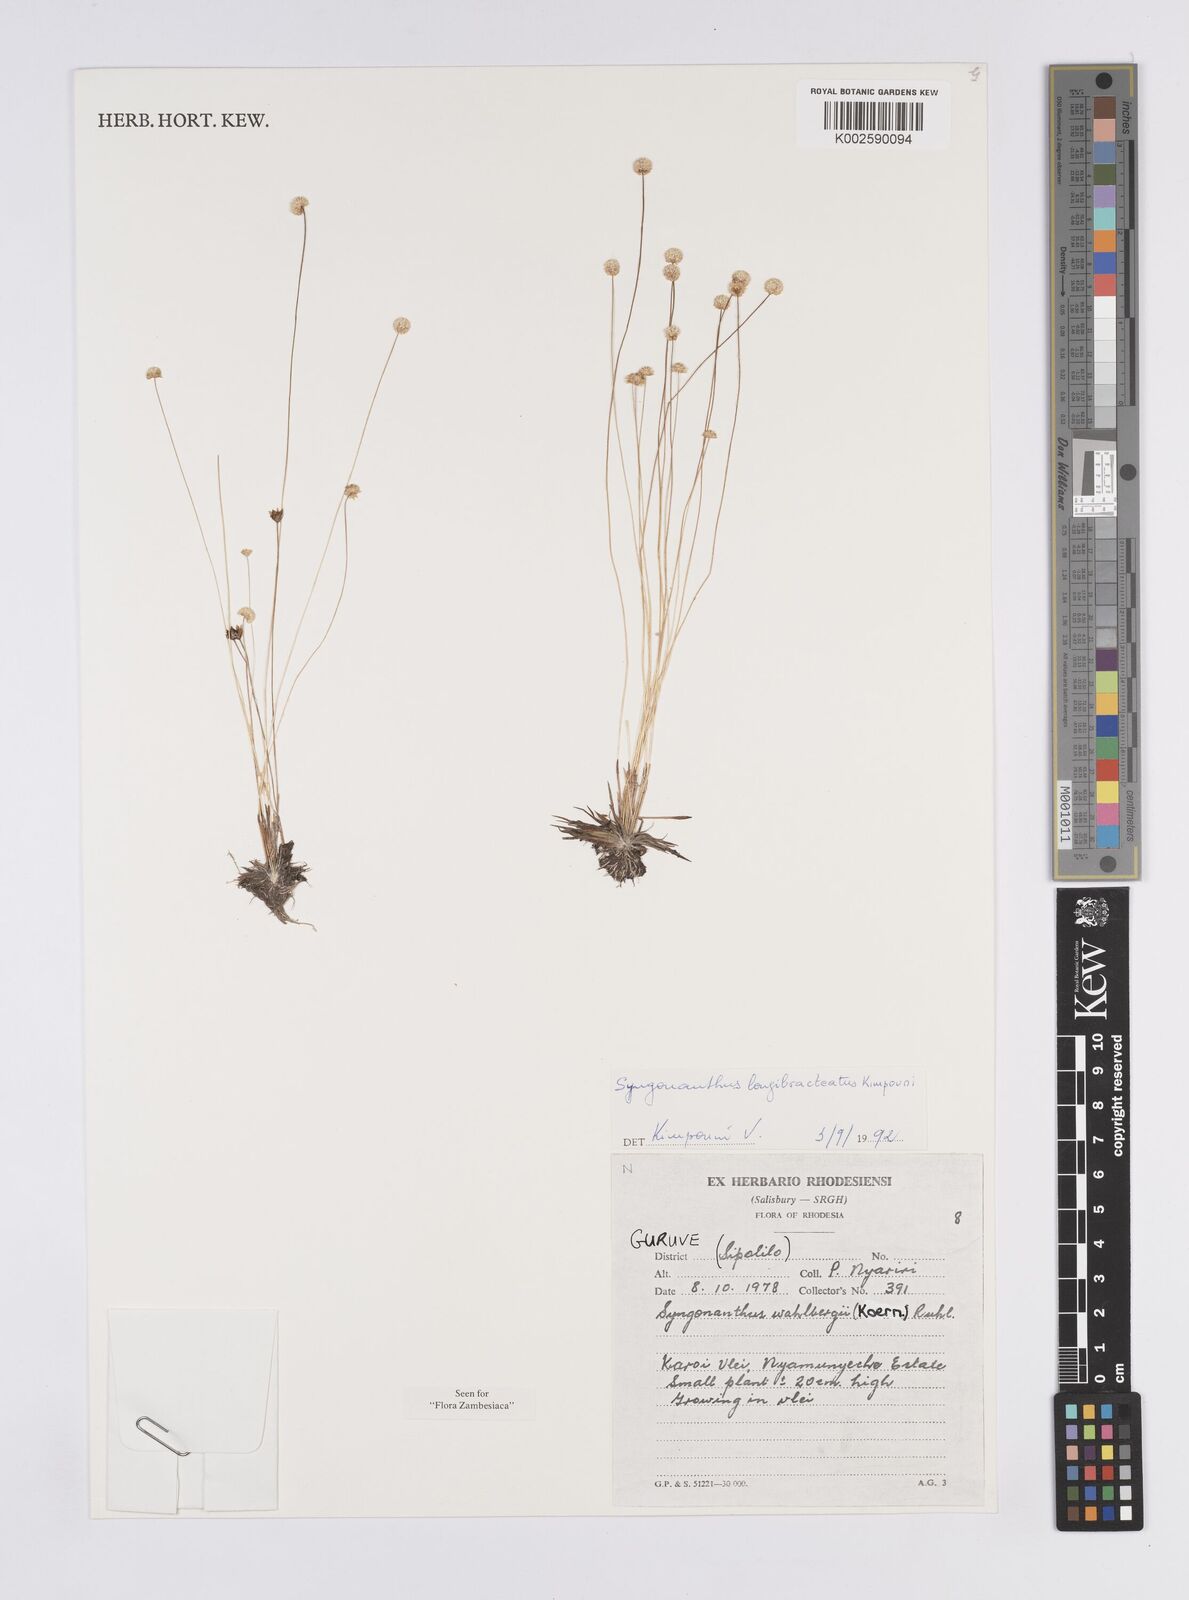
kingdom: Plantae
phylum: Tracheophyta
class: Liliopsida
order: Poales
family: Eriocaulaceae
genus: Syngonanthus
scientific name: Syngonanthus longibracteatus
